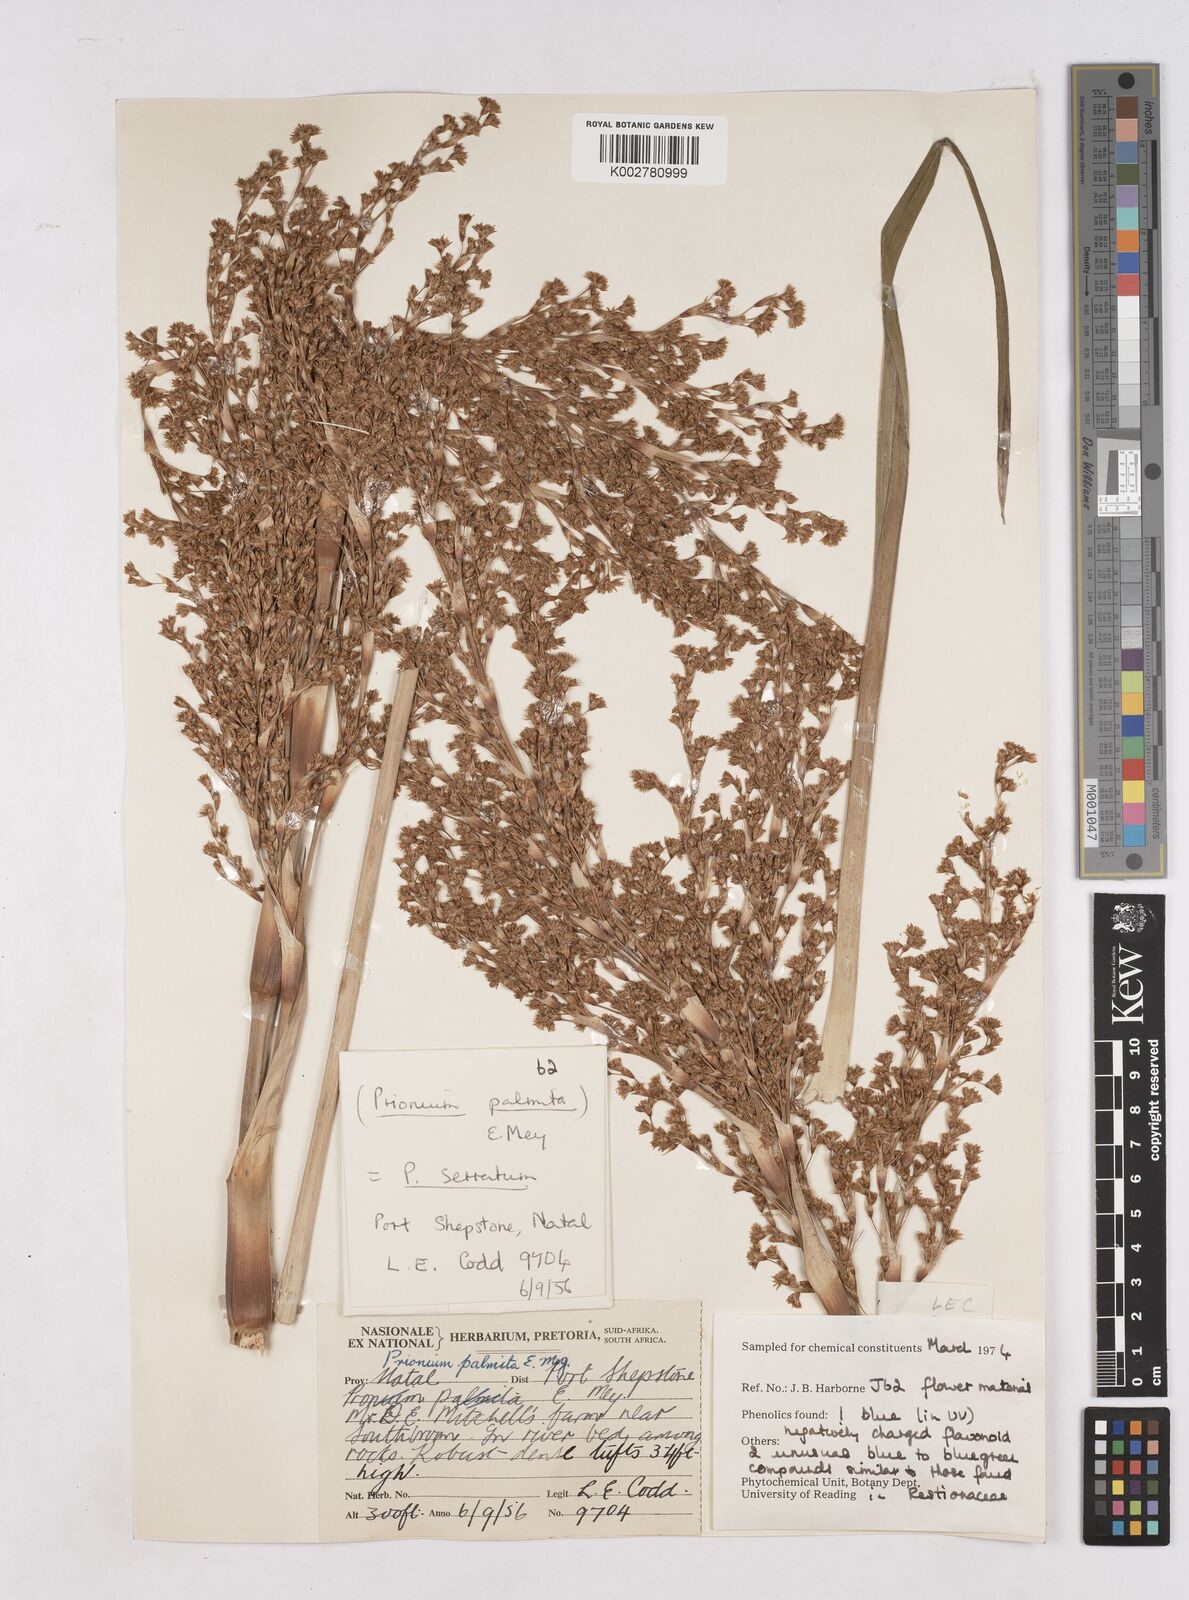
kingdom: Plantae
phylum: Tracheophyta
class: Liliopsida
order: Poales
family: Thurniaceae
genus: Prionium
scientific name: Prionium serratum
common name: Palmiet
